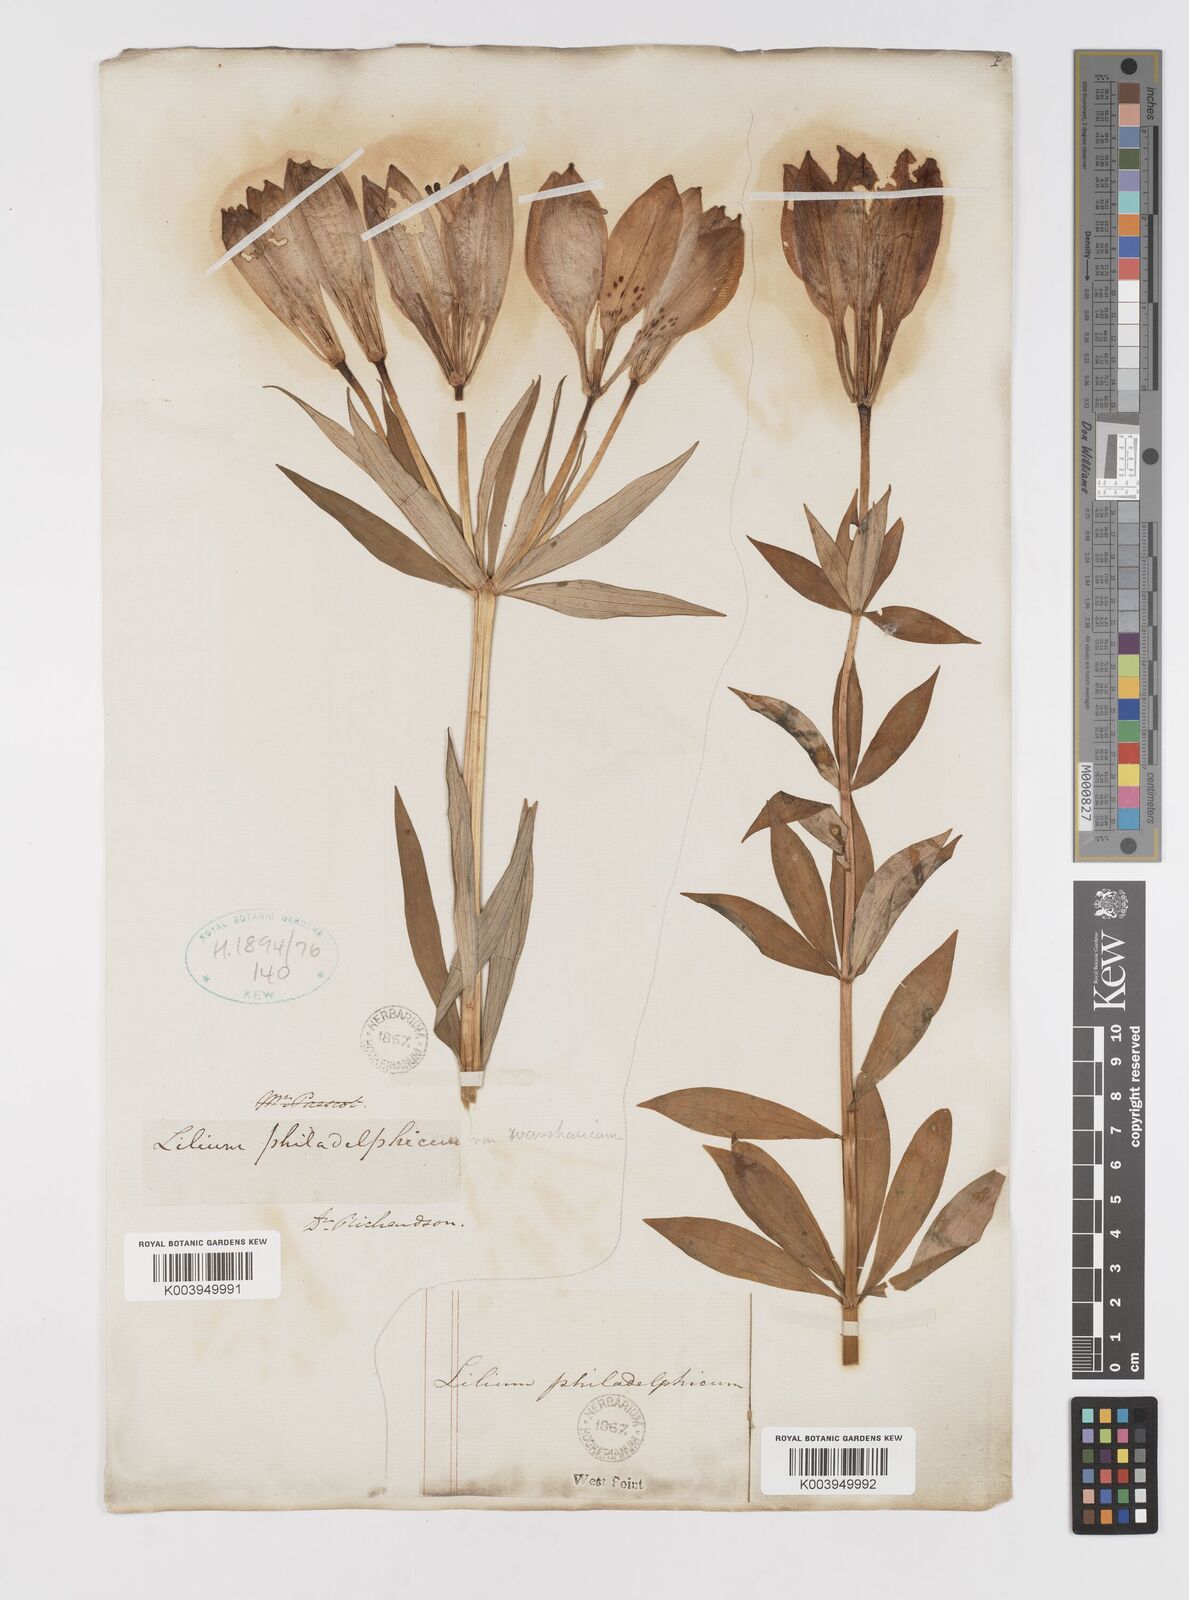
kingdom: Plantae
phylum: Tracheophyta
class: Liliopsida
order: Liliales
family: Liliaceae
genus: Lilium
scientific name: Lilium philadelphicum
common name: Red lily
